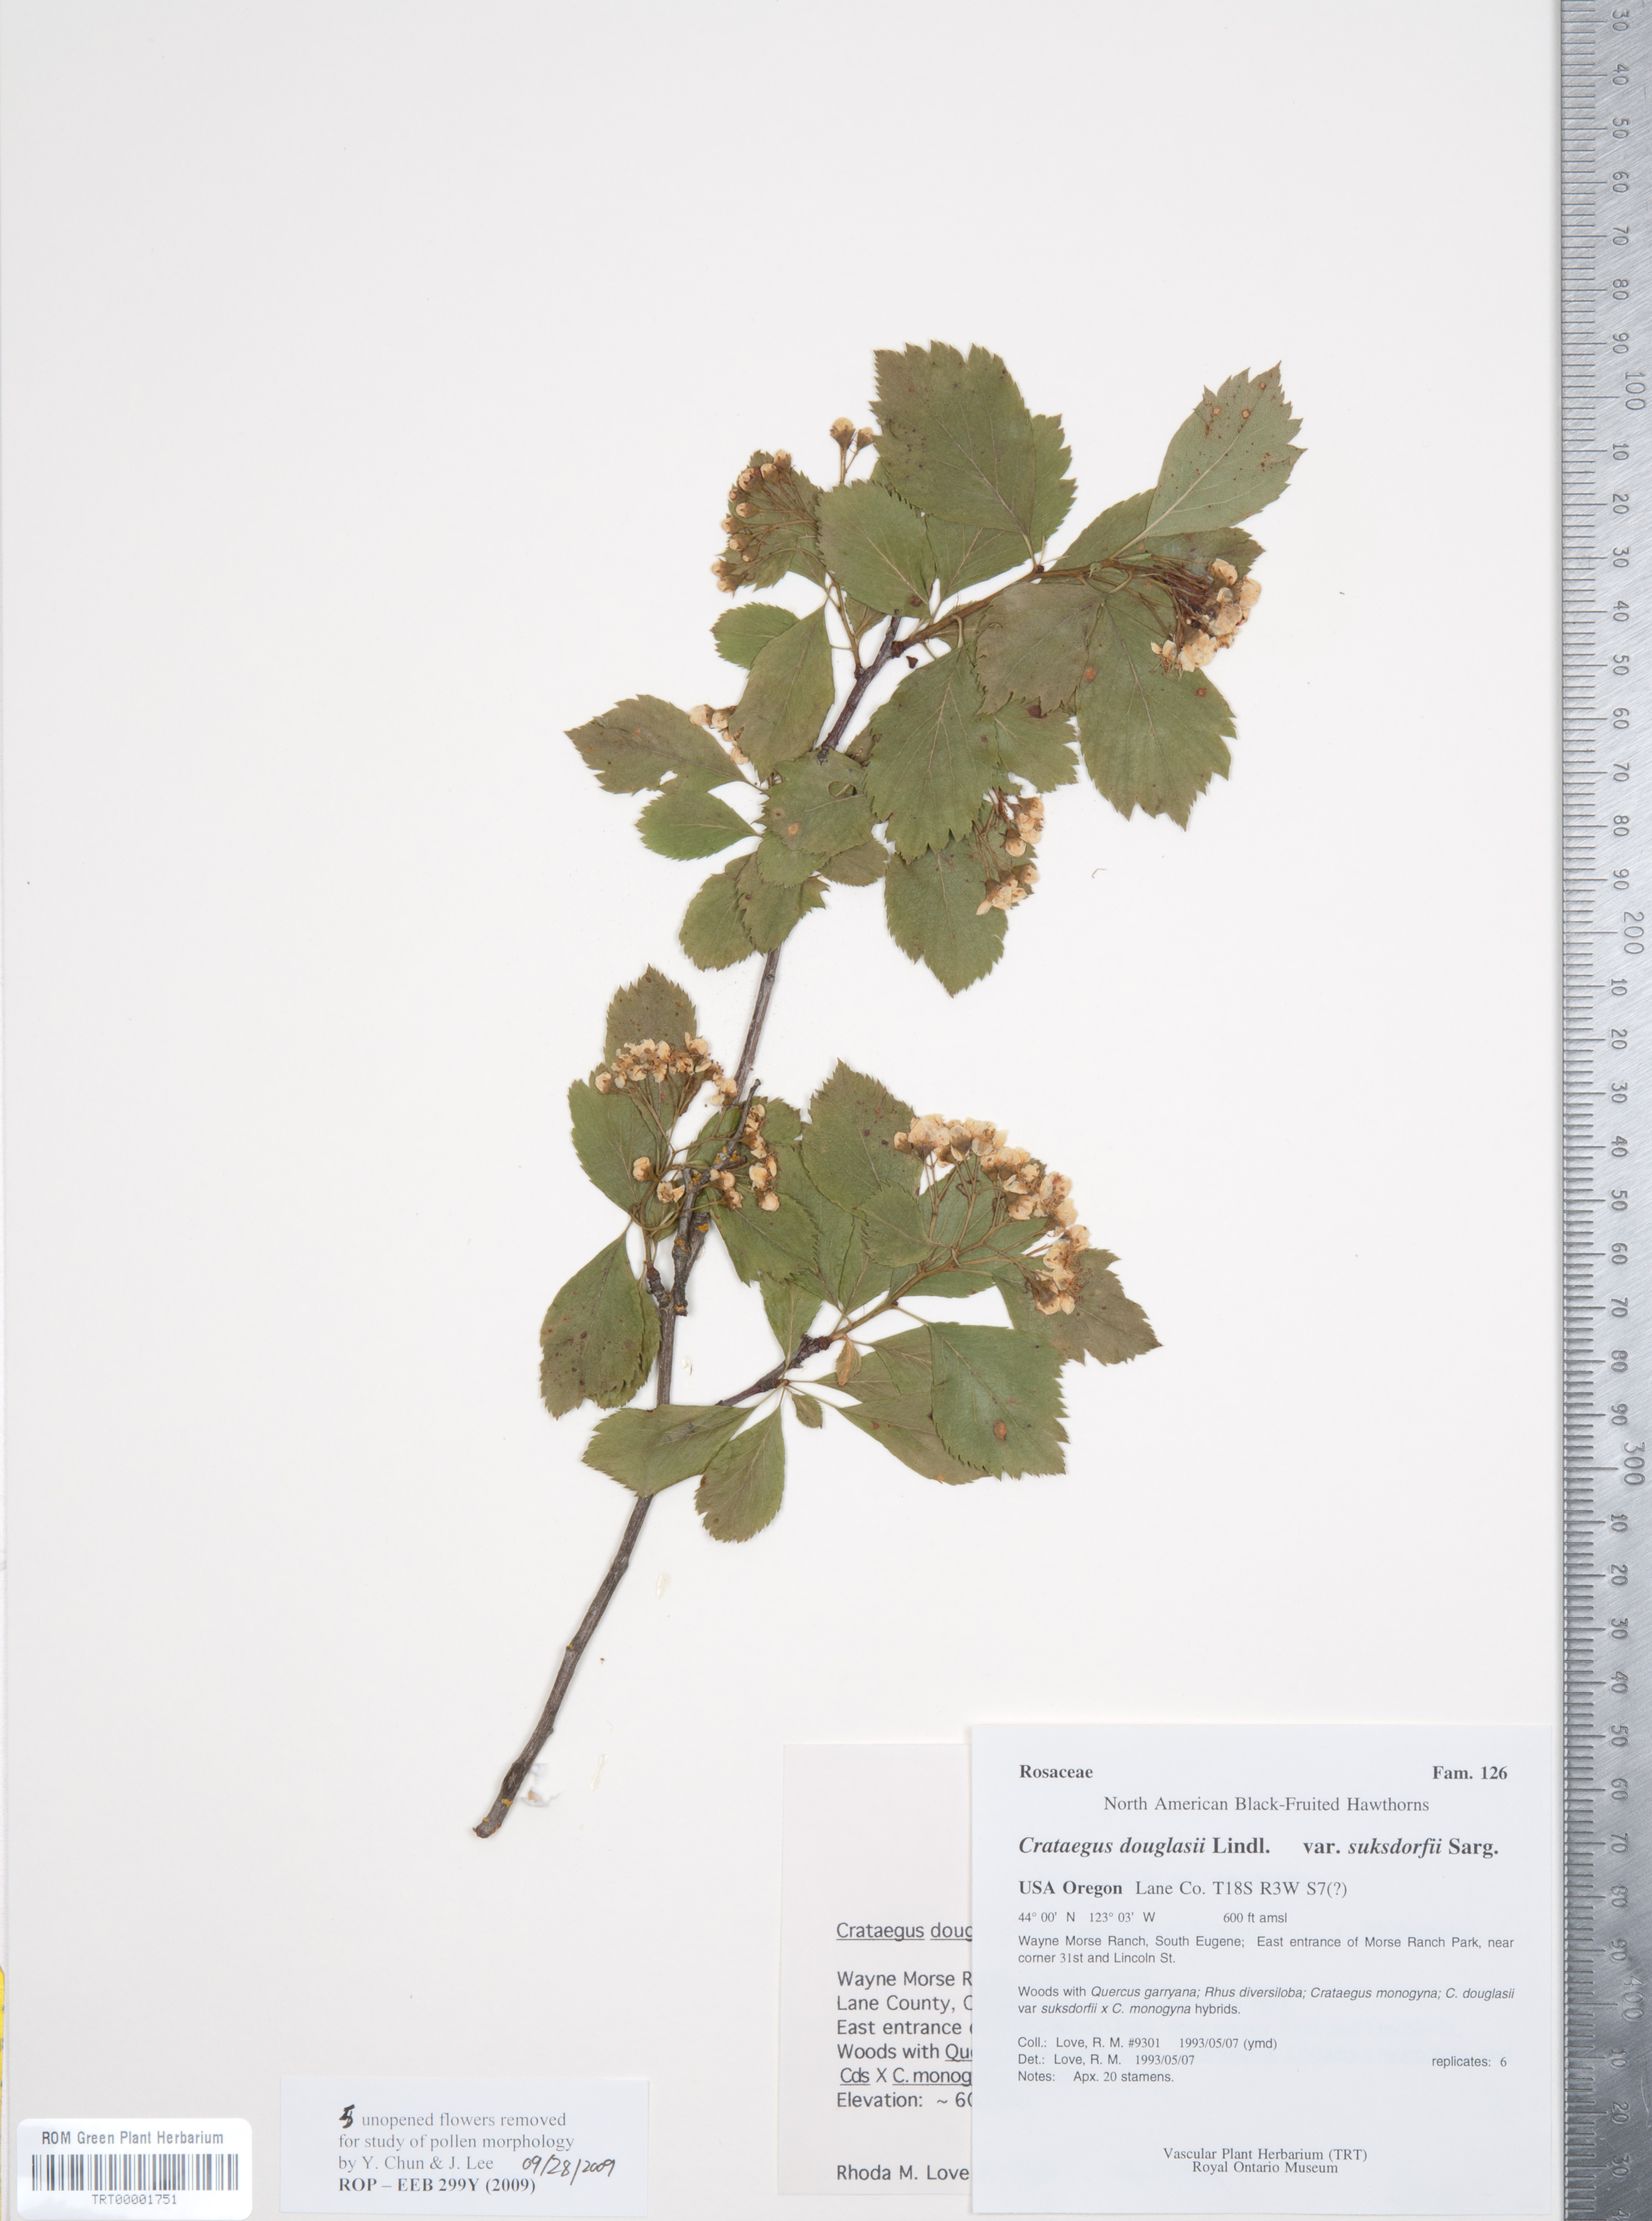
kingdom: Plantae
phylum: Tracheophyta
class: Magnoliopsida
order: Rosales
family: Rosaceae
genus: Crataegus
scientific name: Crataegus gaylussacia
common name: Huckleberry hawthorn
